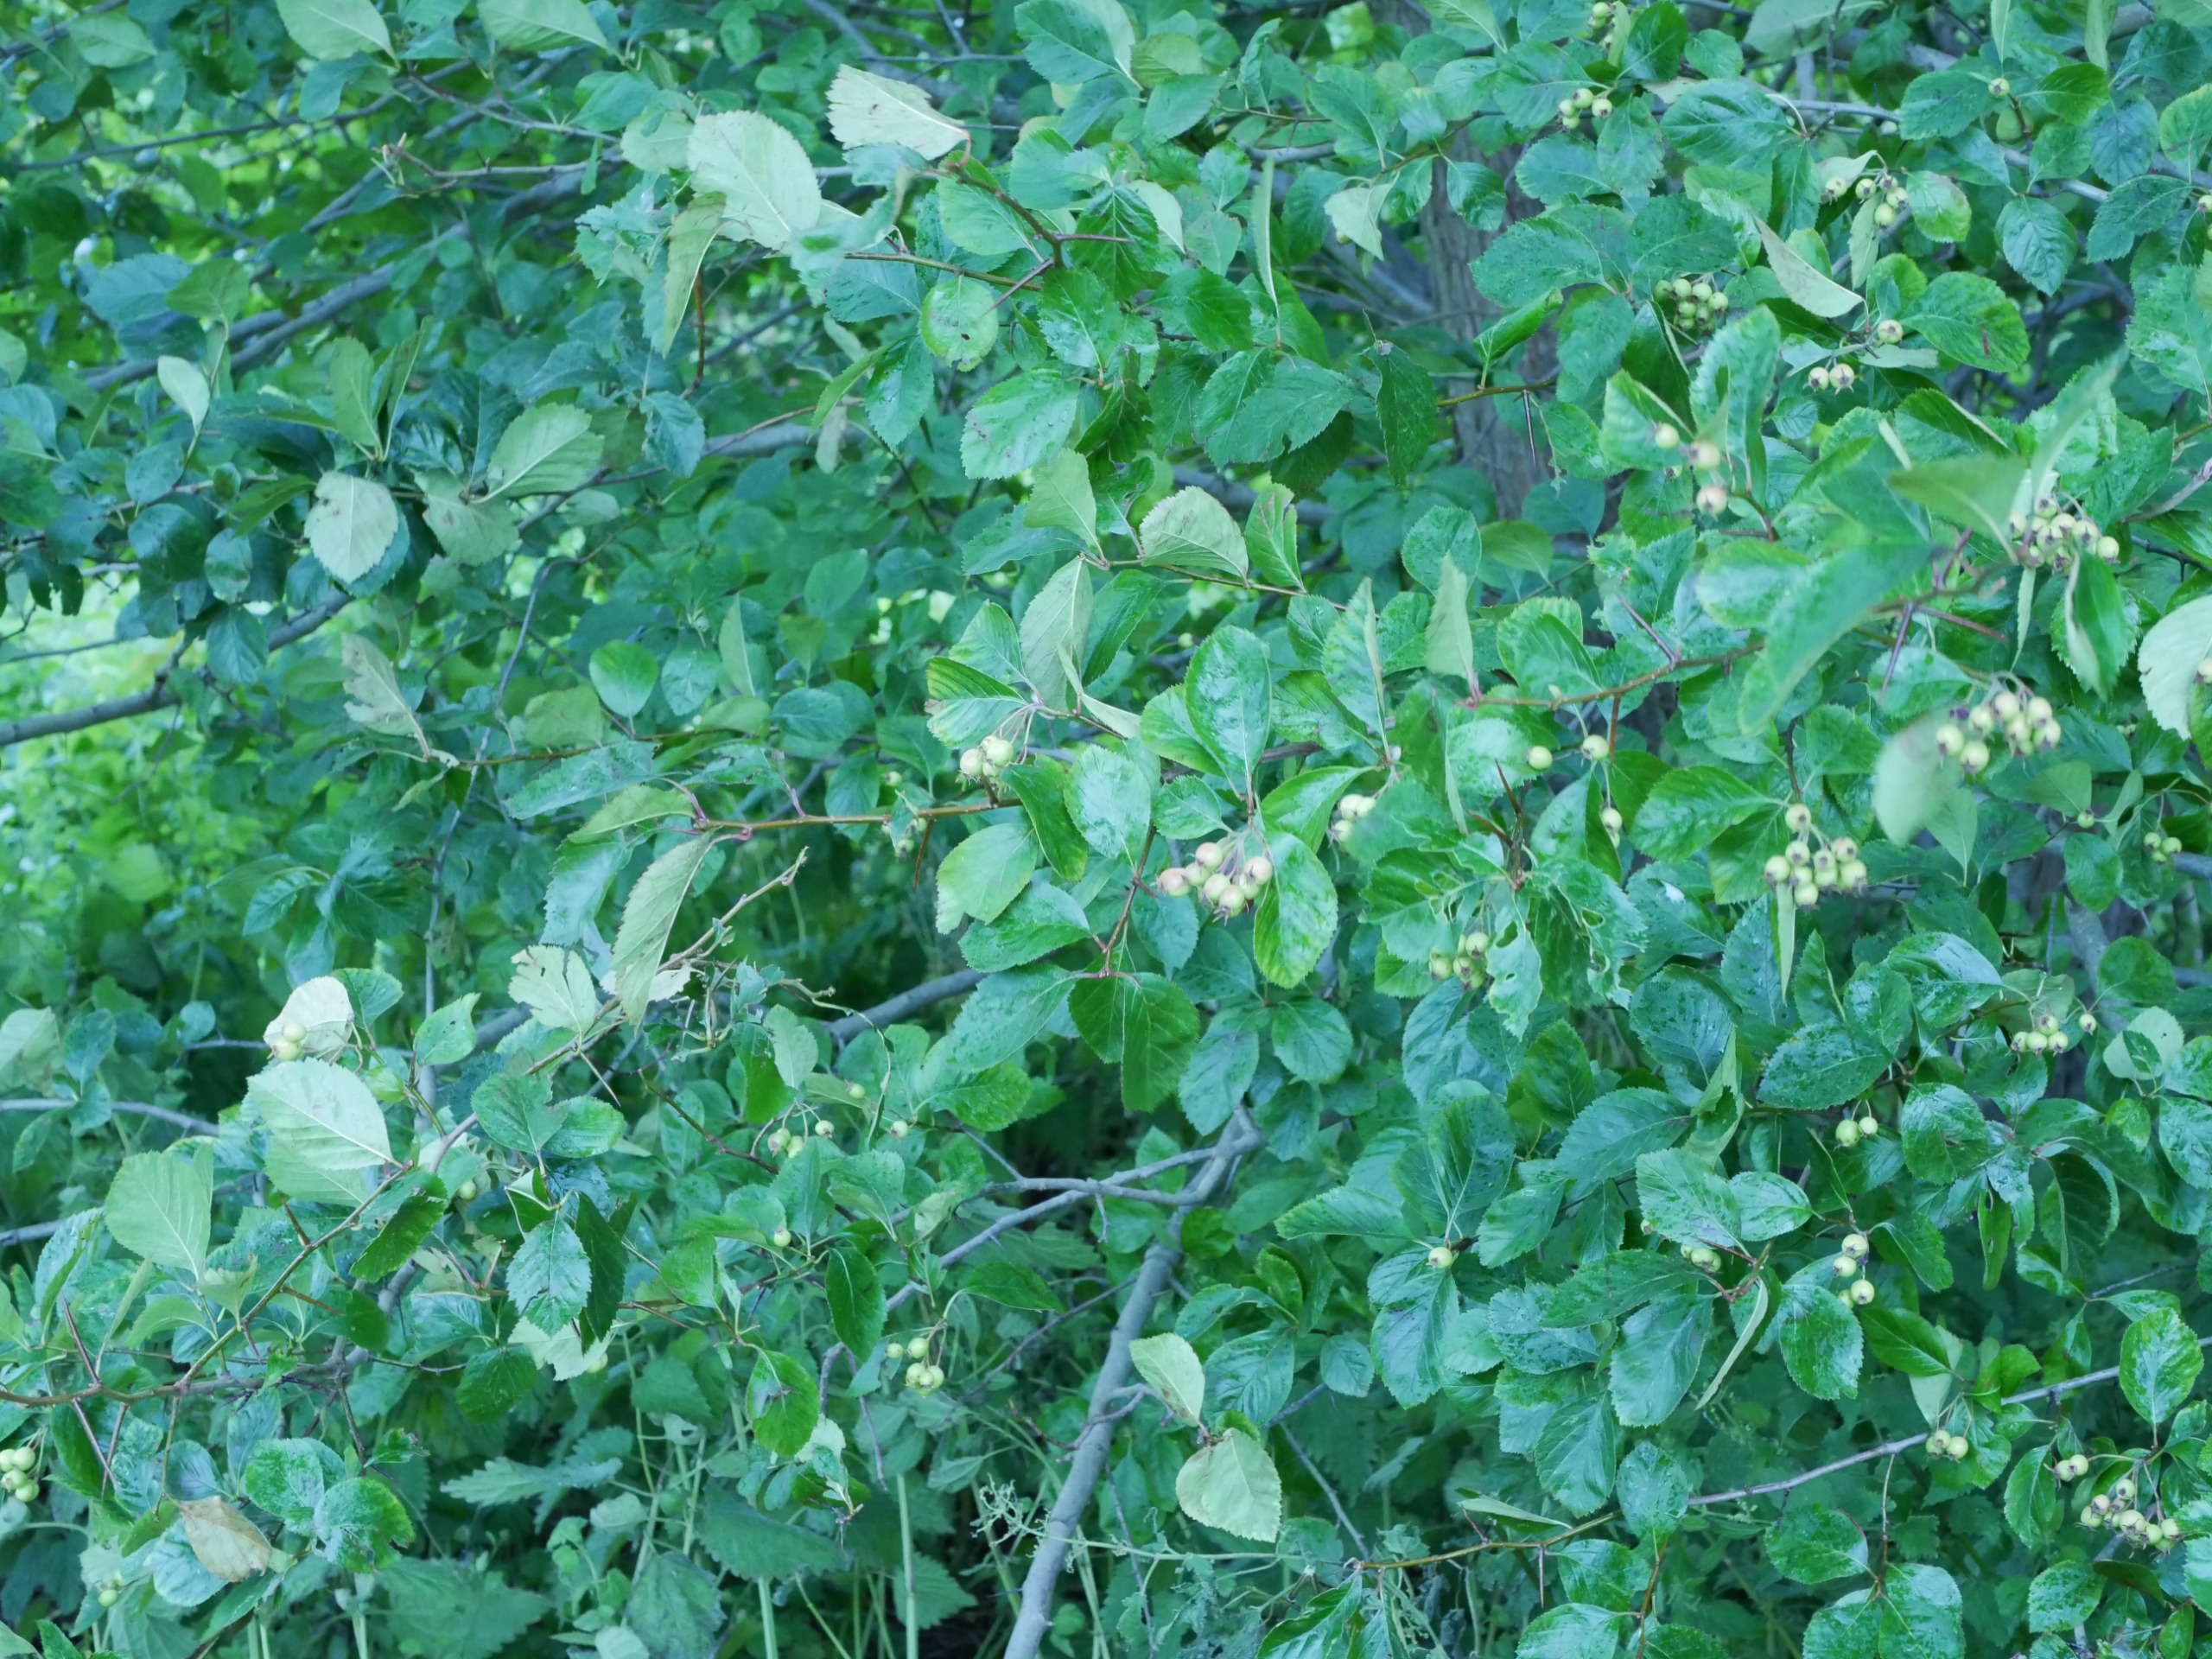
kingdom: Plantae
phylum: Tracheophyta
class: Magnoliopsida
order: Rosales
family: Rosaceae
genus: Crataegus
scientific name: Crataegus persimilis
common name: Syltornet tjørn
